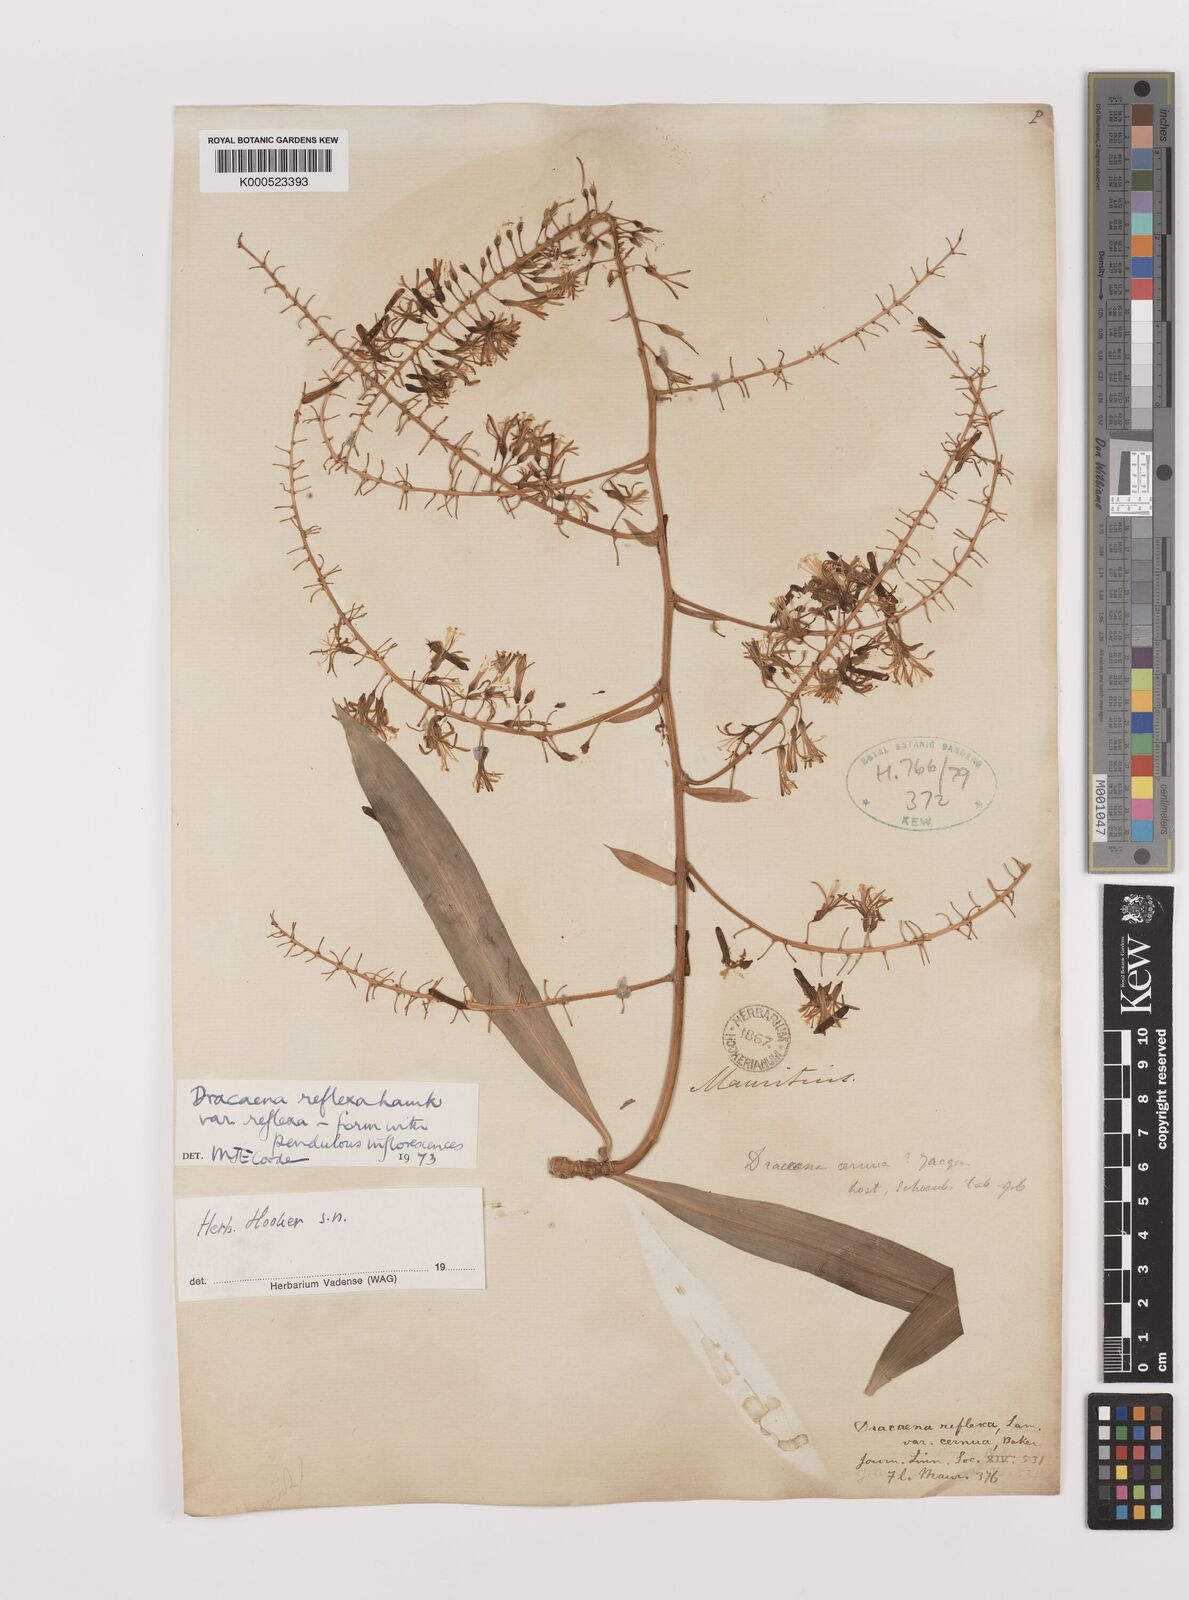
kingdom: Plantae
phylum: Tracheophyta
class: Liliopsida
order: Asparagales
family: Asparagaceae
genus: Dracaena
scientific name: Dracaena reflexa
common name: Song-of-india
